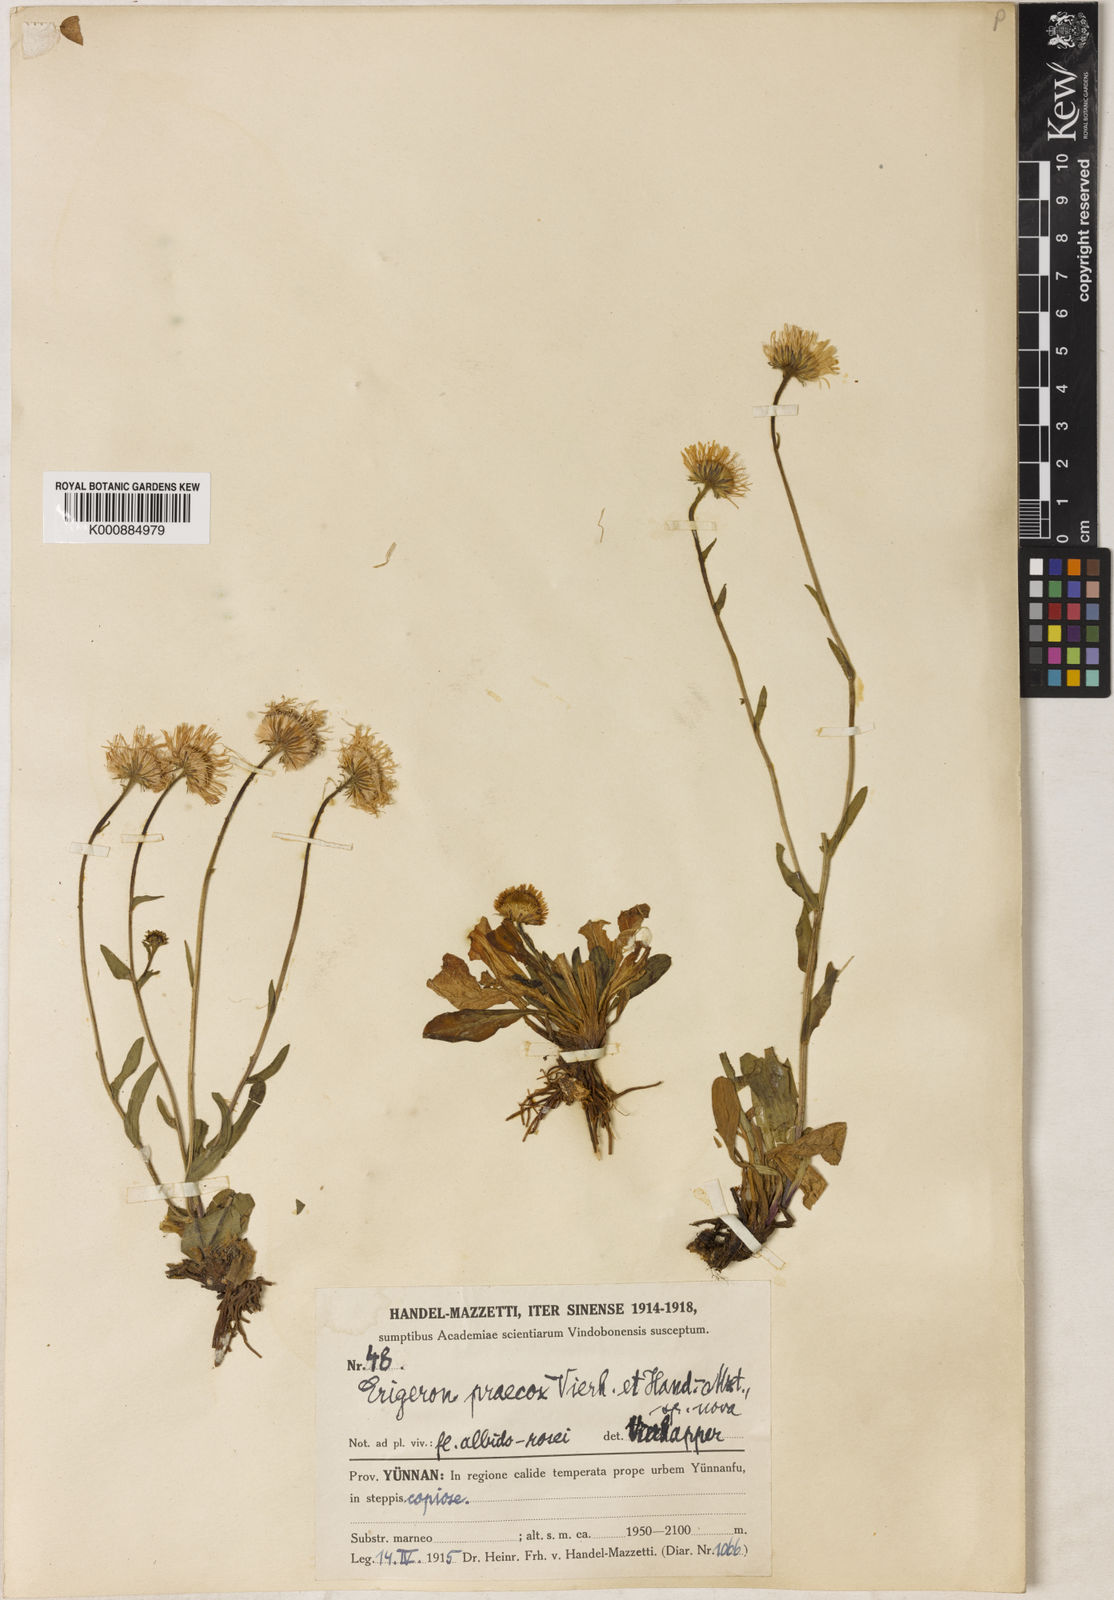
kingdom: Plantae
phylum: Tracheophyta
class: Magnoliopsida
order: Asterales
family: Asteraceae
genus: Erigeron
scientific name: Erigeron breviscapus
